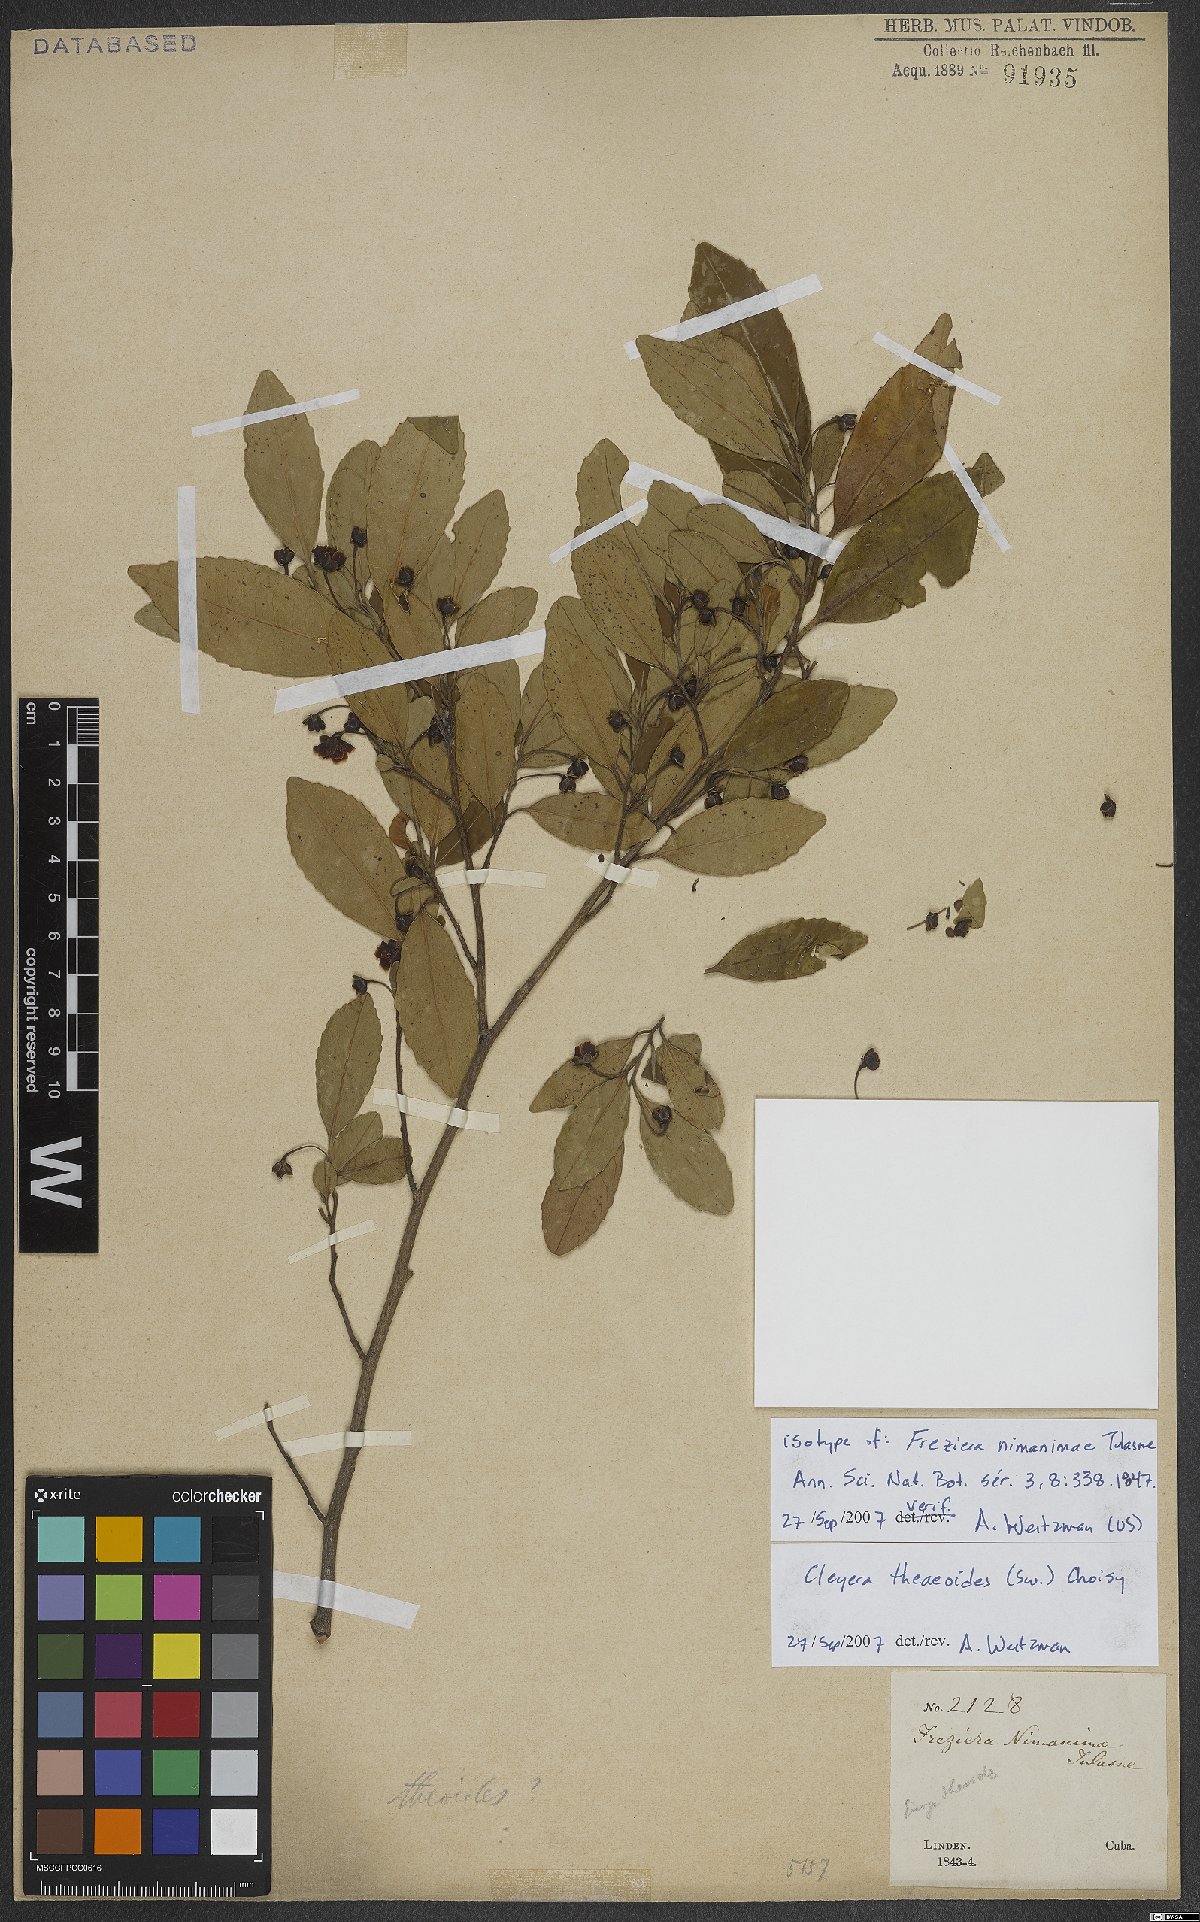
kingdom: Plantae
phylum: Tracheophyta
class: Magnoliopsida
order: Ericales
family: Pentaphylacaceae
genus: Cleyera
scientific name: Cleyera theaeoides
